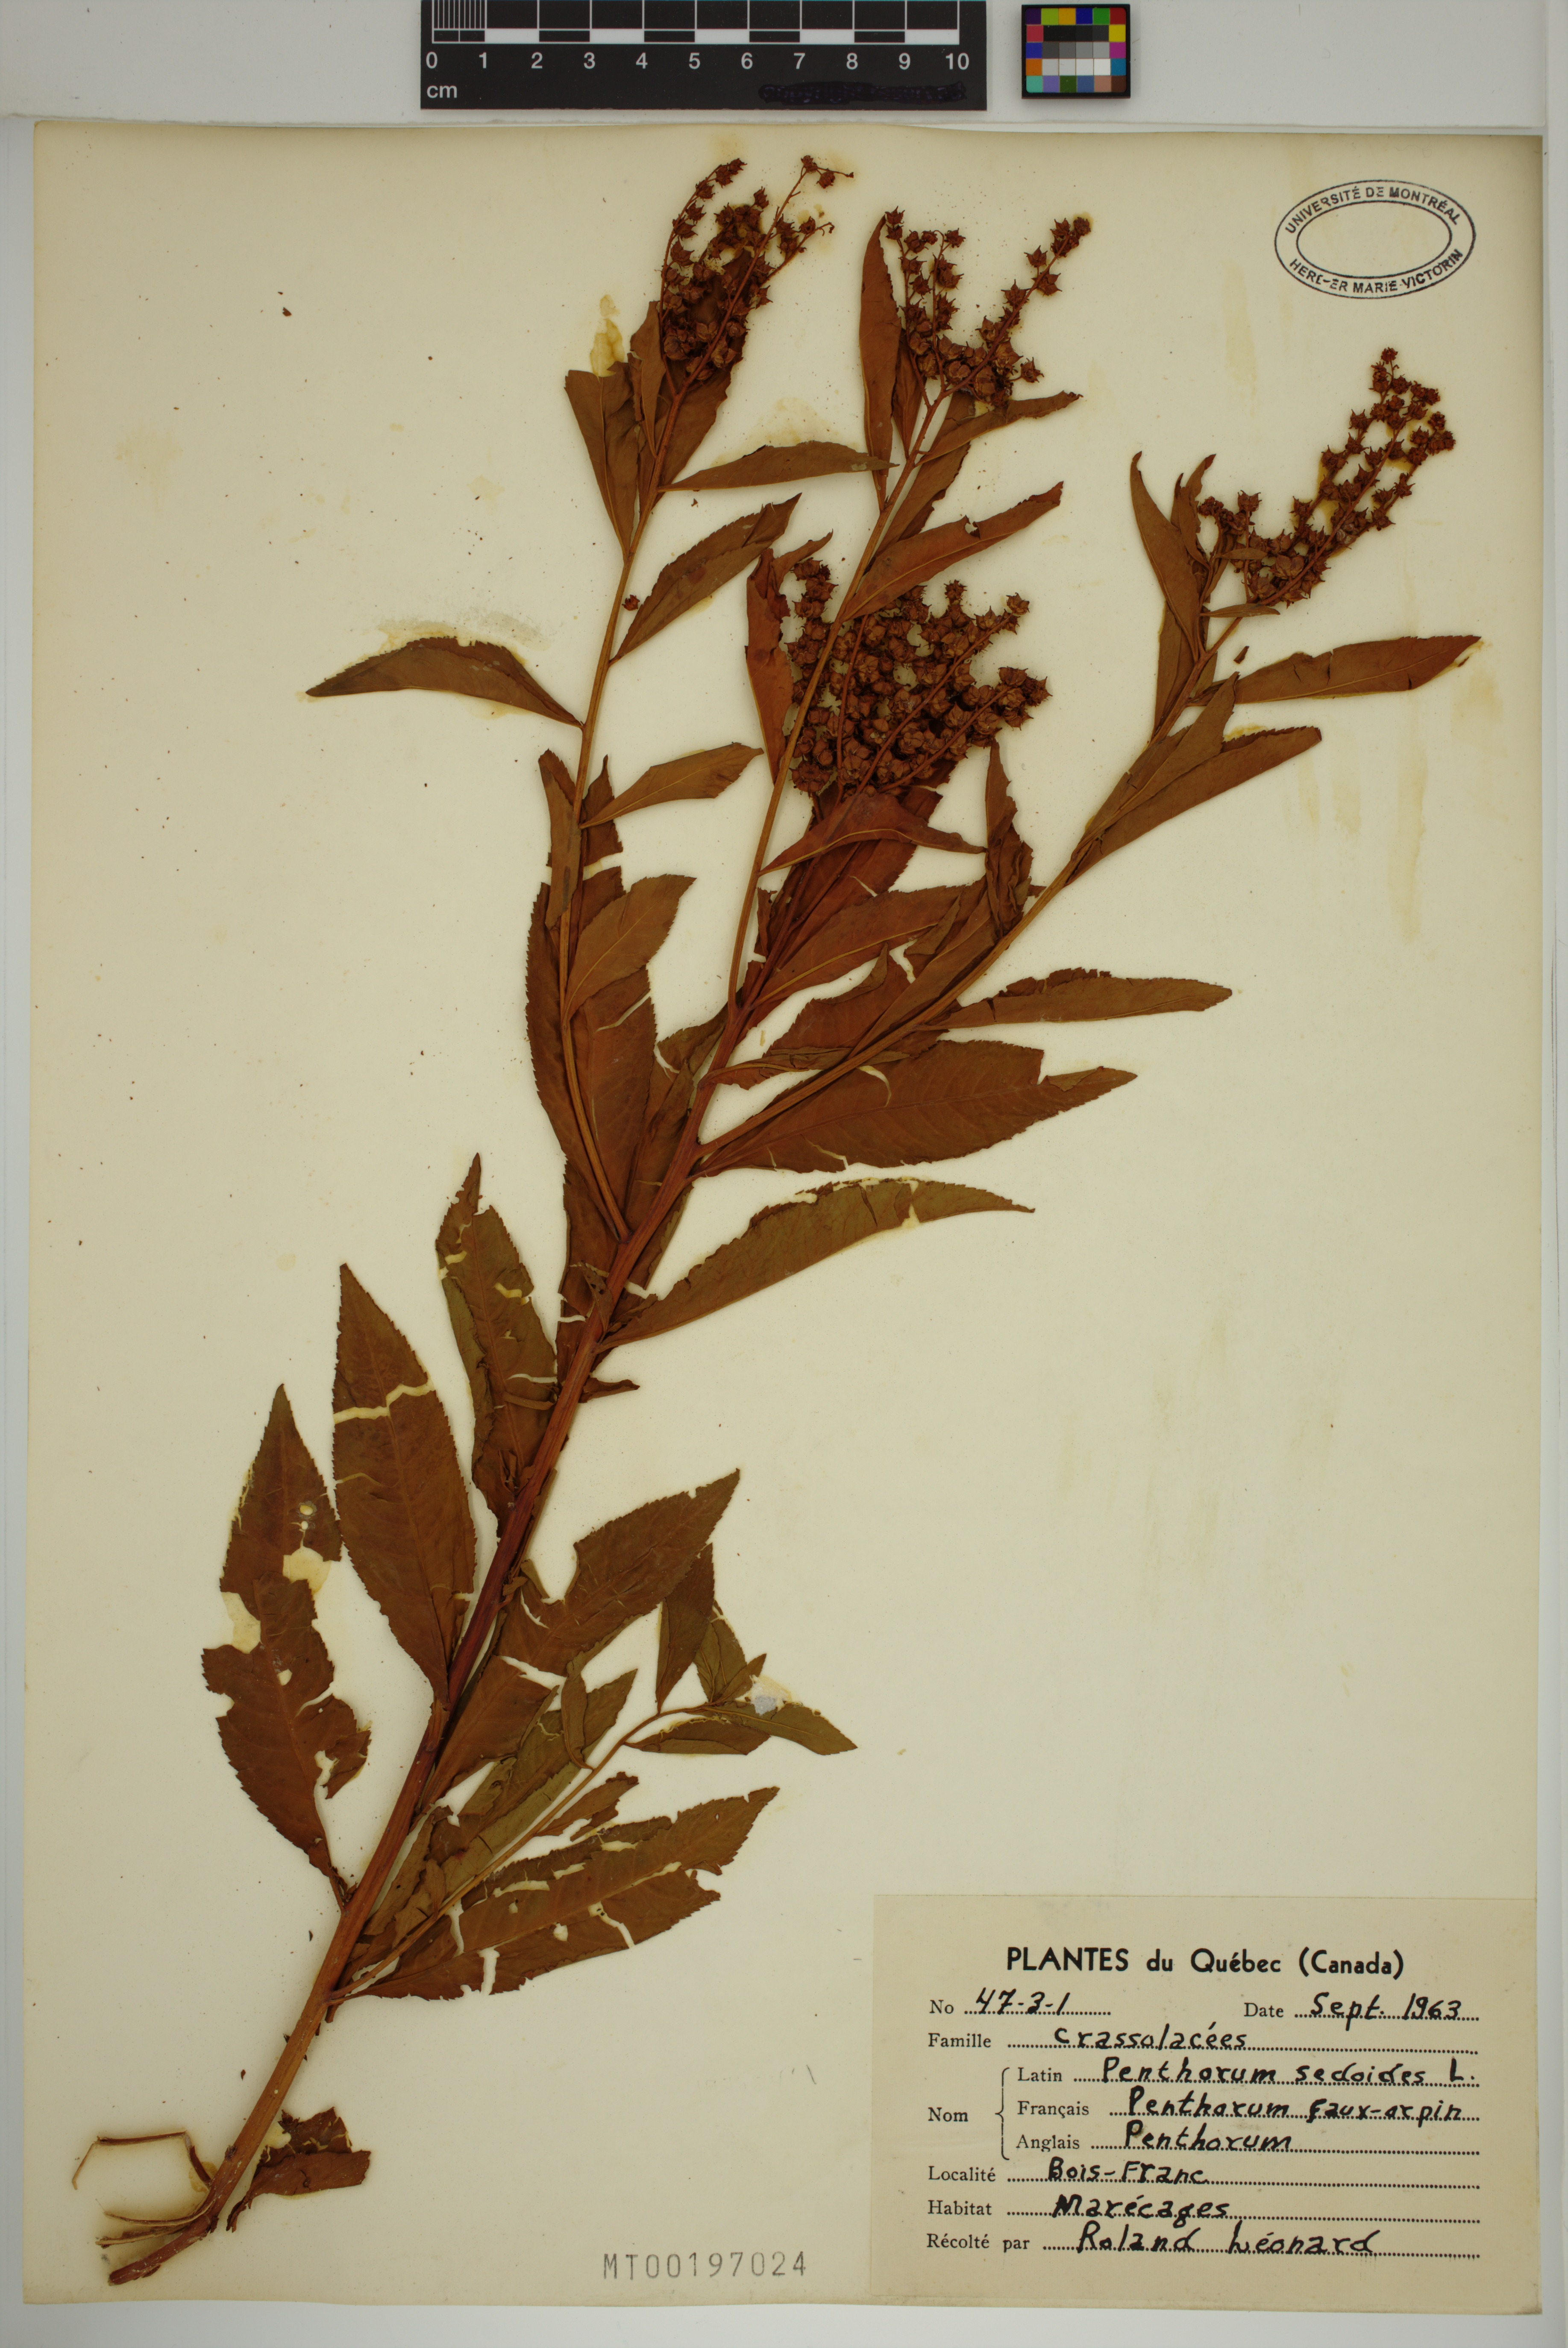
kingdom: Plantae
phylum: Tracheophyta
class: Magnoliopsida
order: Saxifragales
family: Penthoraceae
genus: Penthorum
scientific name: Penthorum sedoides
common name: Ditch stonecrop
